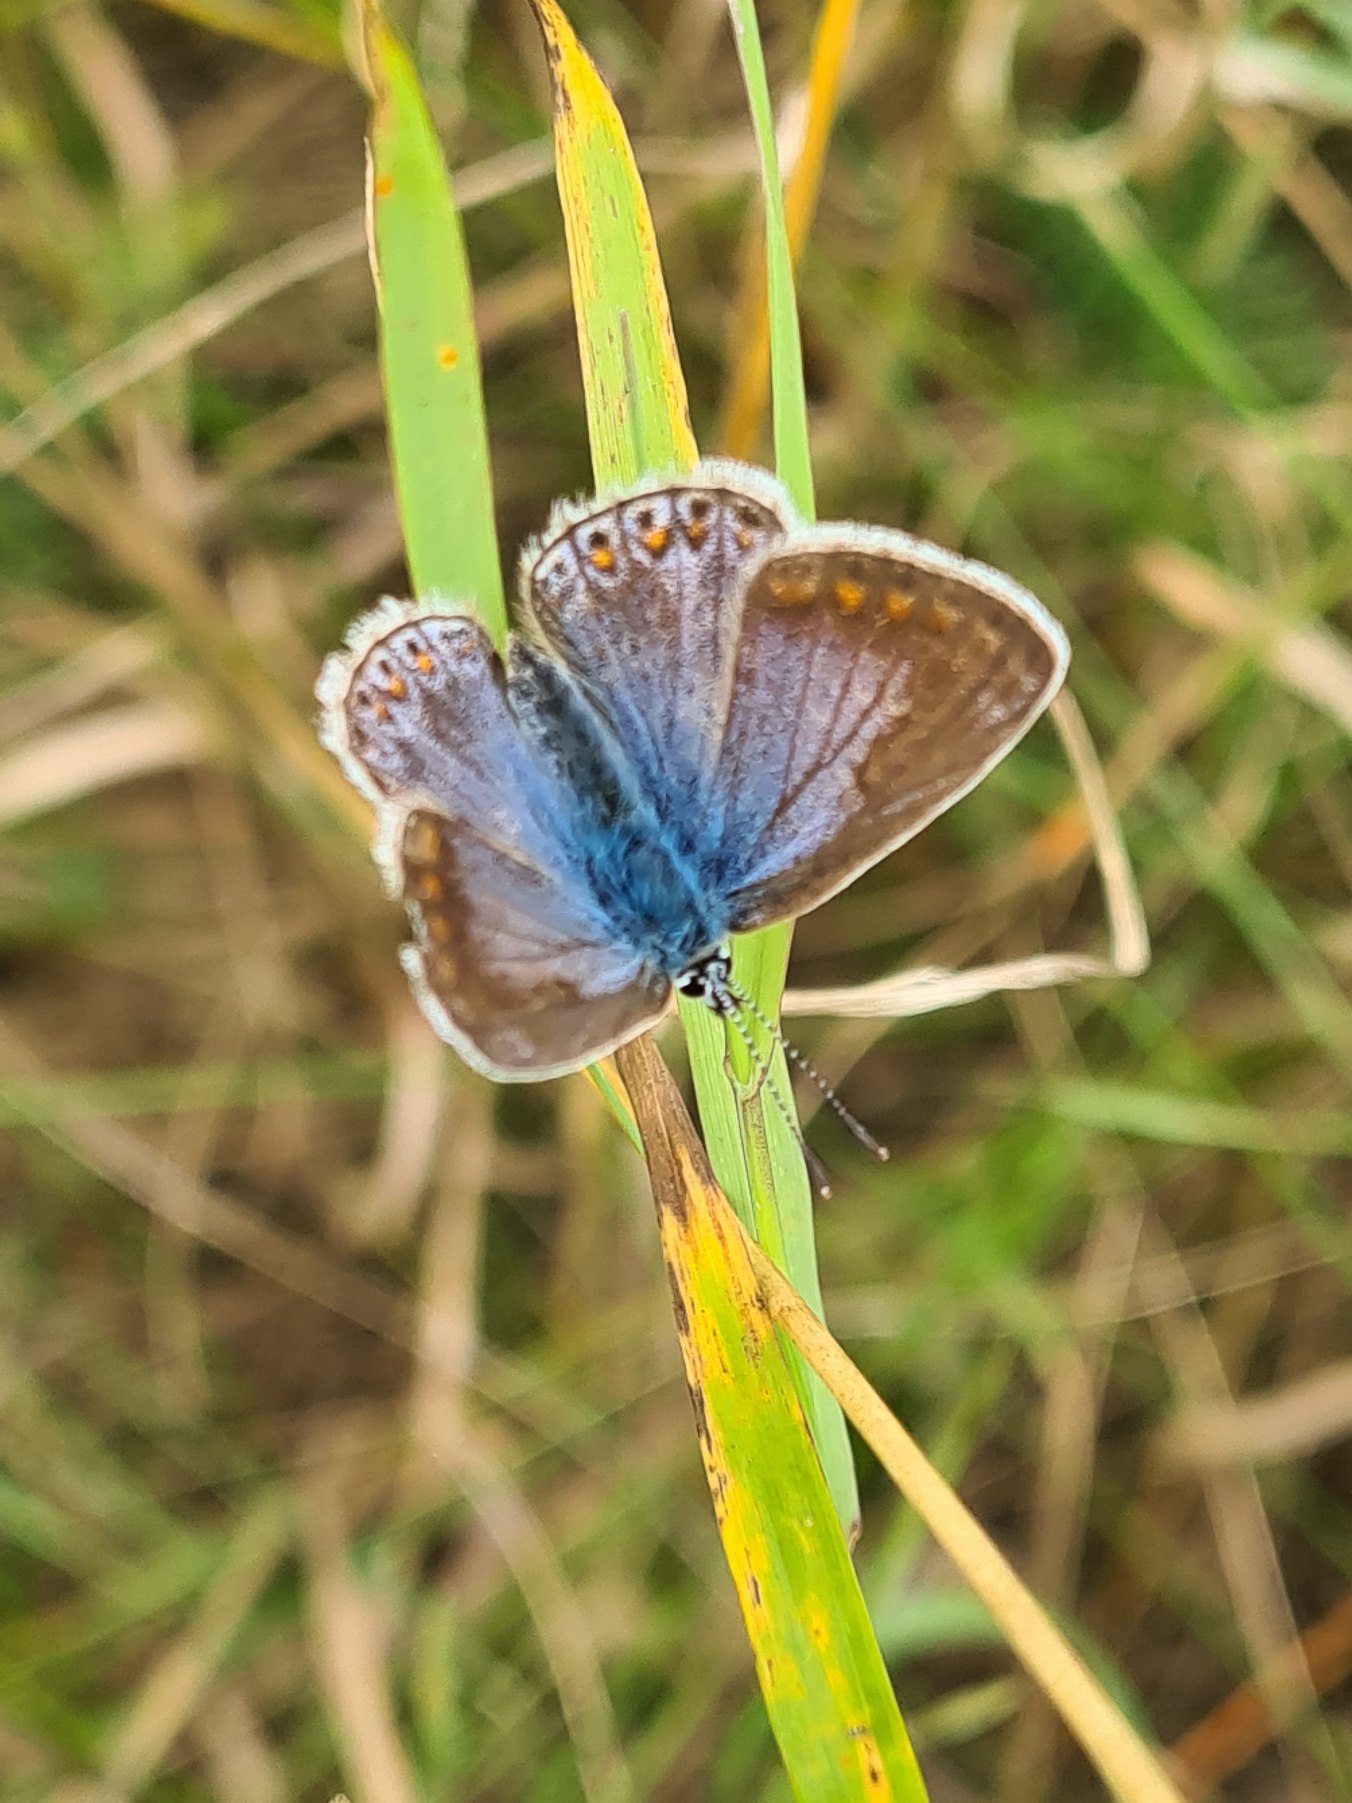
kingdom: Animalia
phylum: Arthropoda
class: Insecta
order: Lepidoptera
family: Lycaenidae
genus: Polyommatus
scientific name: Polyommatus icarus
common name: Almindelig blåfugl
